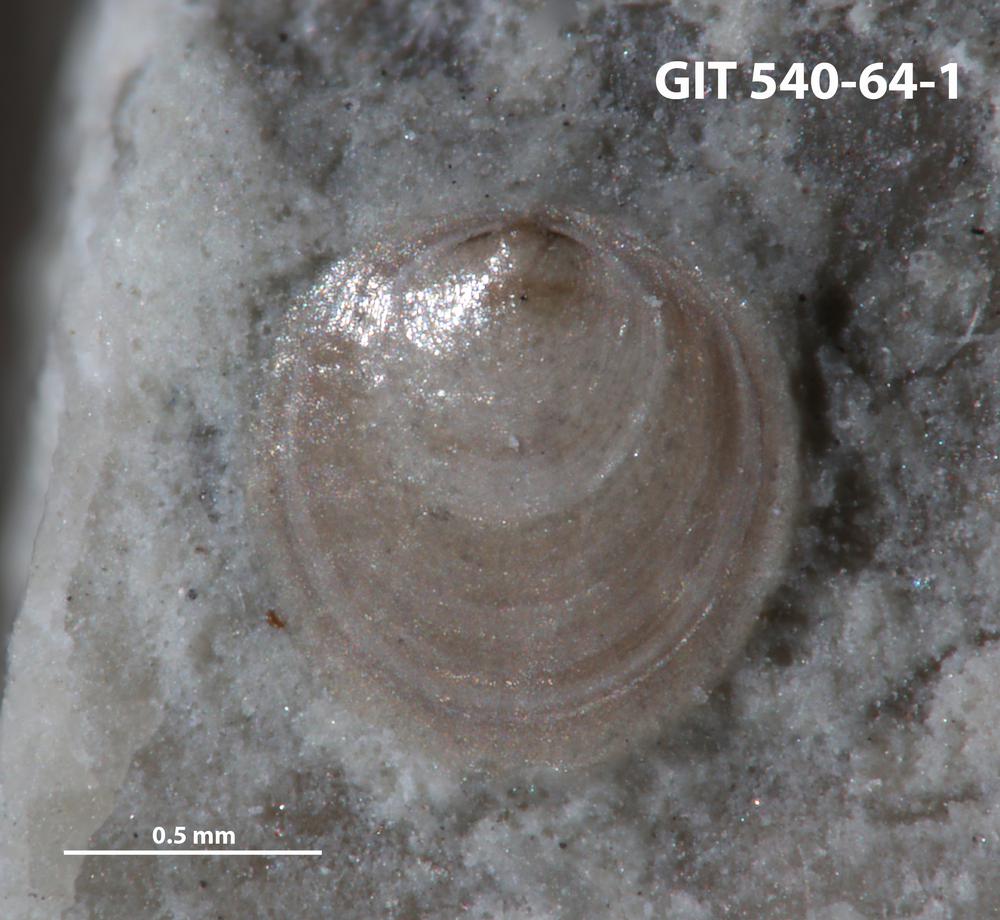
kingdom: Animalia
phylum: Brachiopoda
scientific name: Brachiopoda
